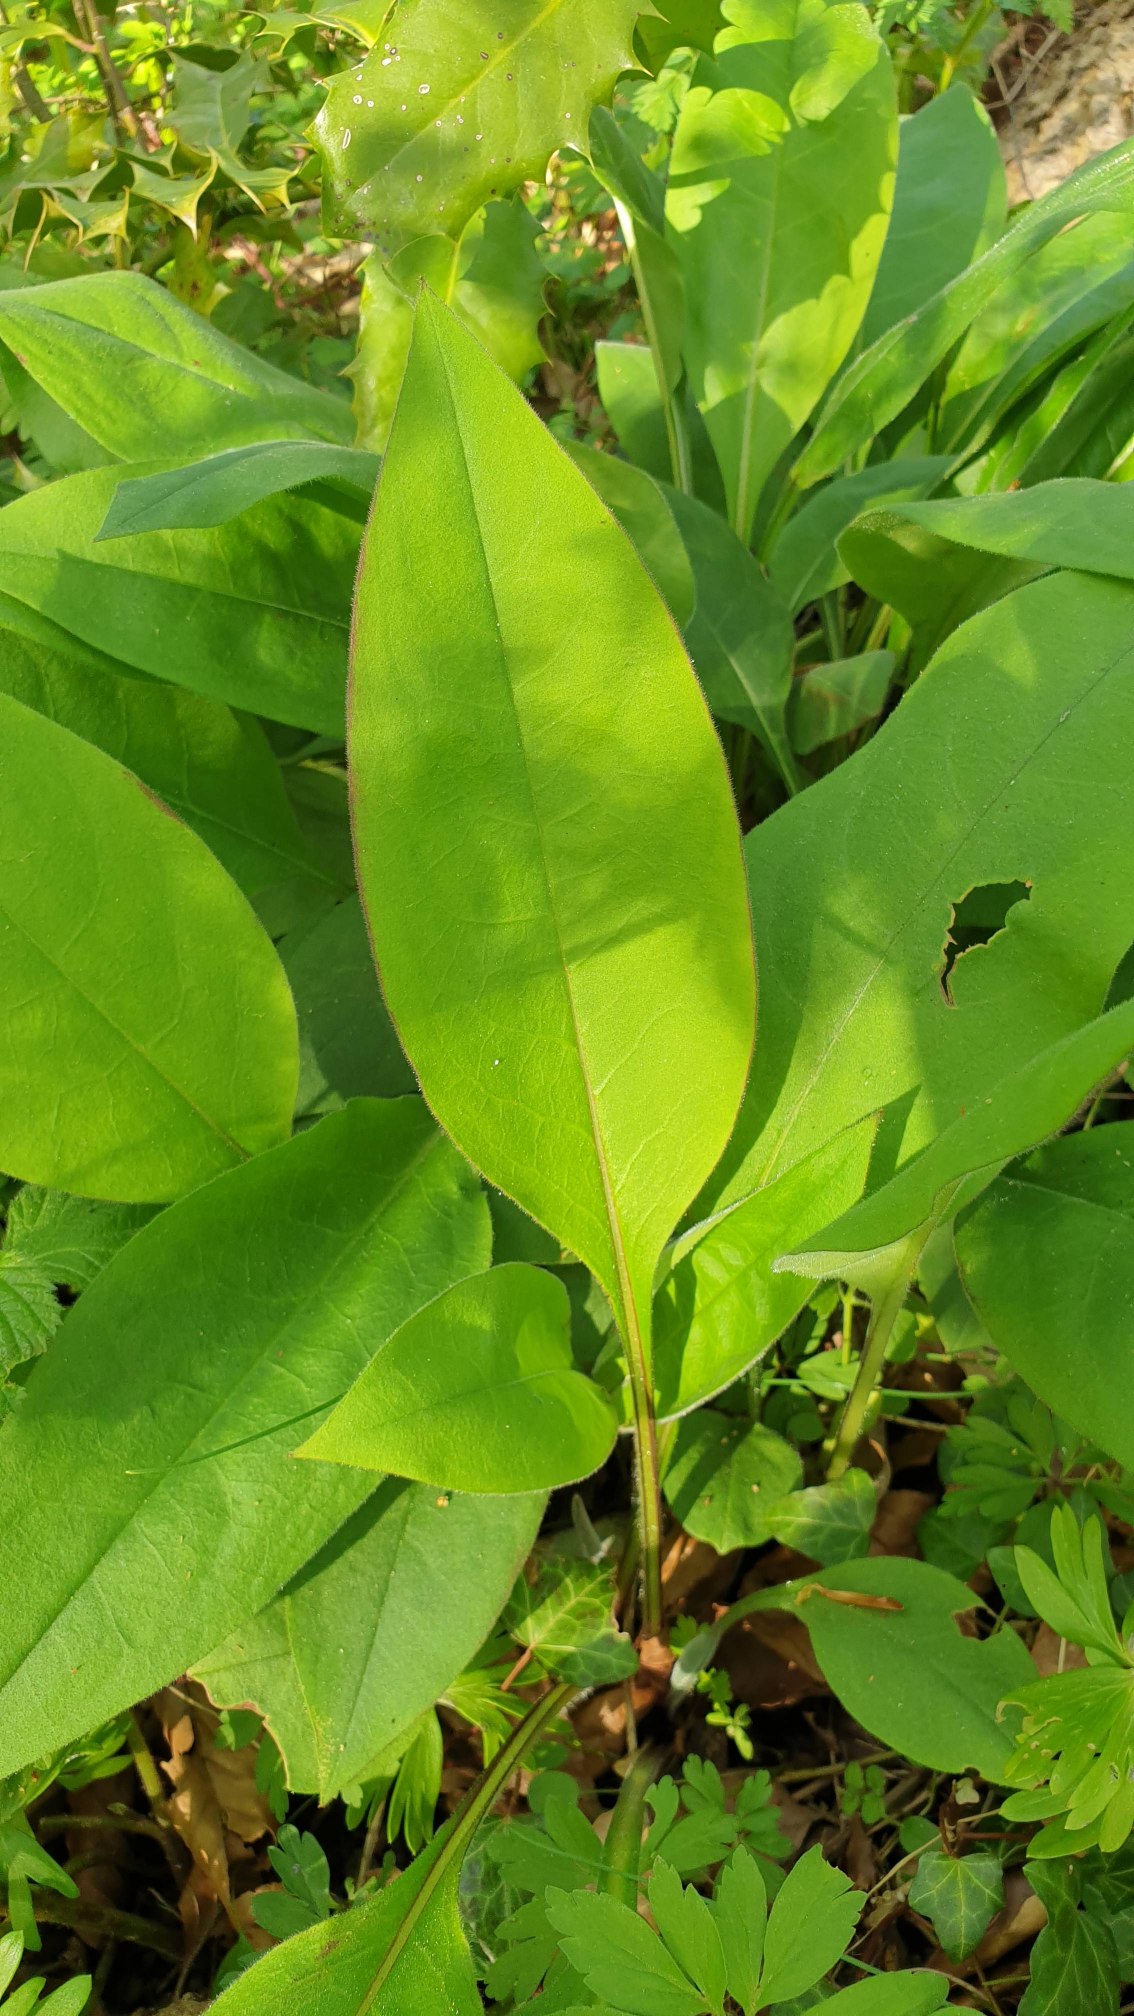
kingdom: Plantae
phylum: Tracheophyta
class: Magnoliopsida
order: Boraginales
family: Boraginaceae
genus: Pulmonaria
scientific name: Pulmonaria
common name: Lungeurtslægten
